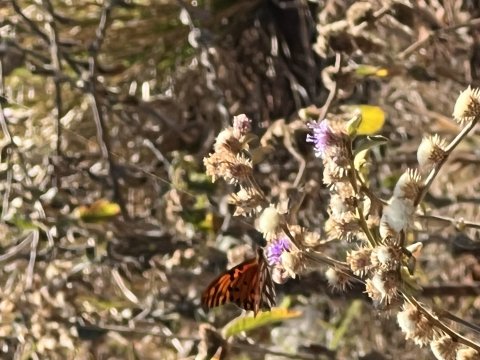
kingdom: Animalia
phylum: Arthropoda
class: Insecta
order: Lepidoptera
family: Nymphalidae
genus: Dione
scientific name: Dione vanillae
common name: Gulf Fritillary
